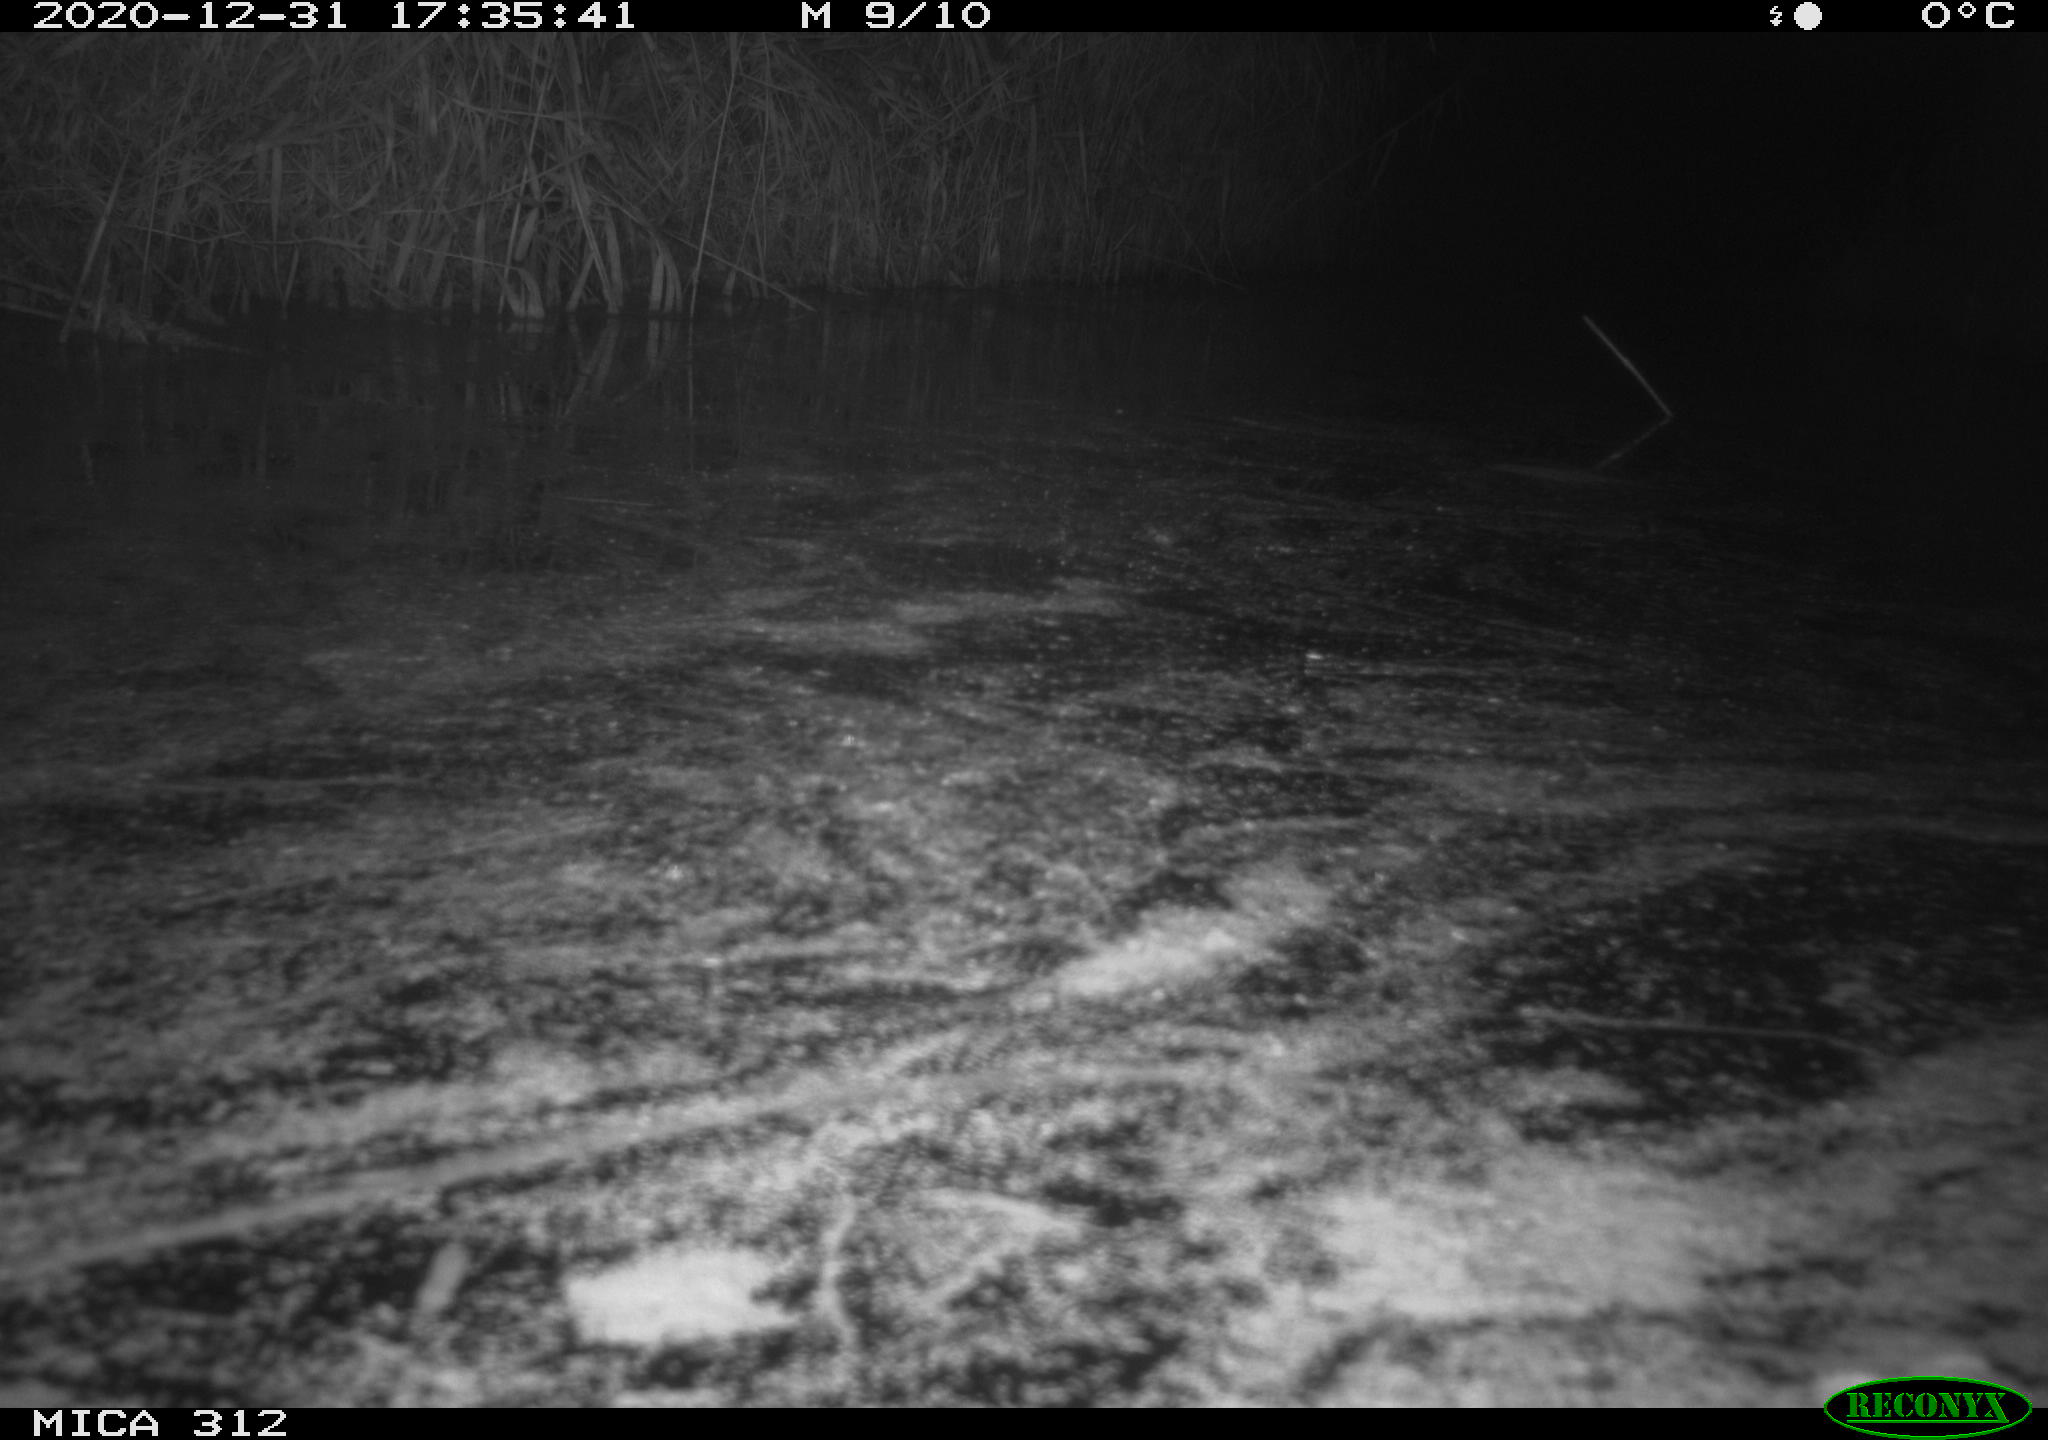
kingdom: Animalia
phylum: Chordata
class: Mammalia
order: Rodentia
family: Muridae
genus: Rattus
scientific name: Rattus norvegicus
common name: Brown rat
